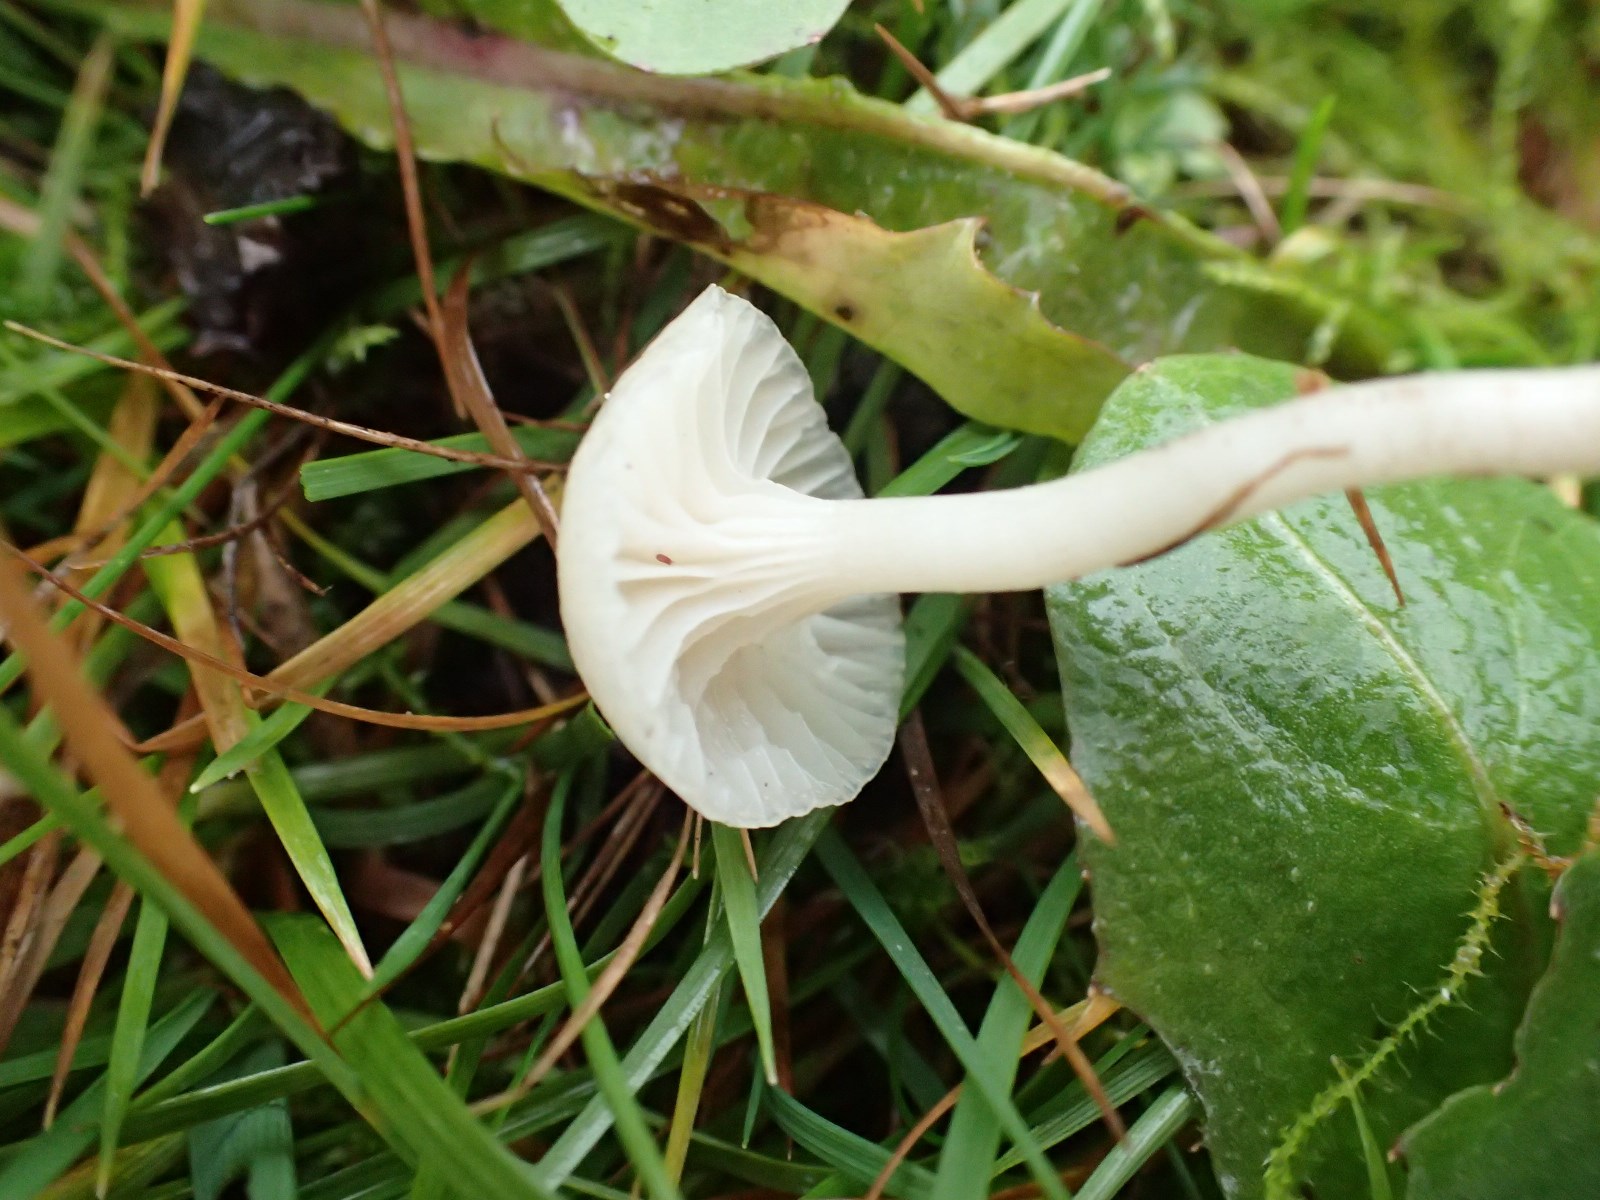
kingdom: Fungi
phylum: Basidiomycota
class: Agaricomycetes
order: Agaricales
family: Hygrophoraceae
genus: Cuphophyllus
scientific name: Cuphophyllus virgineus
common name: snehvid vokshat
